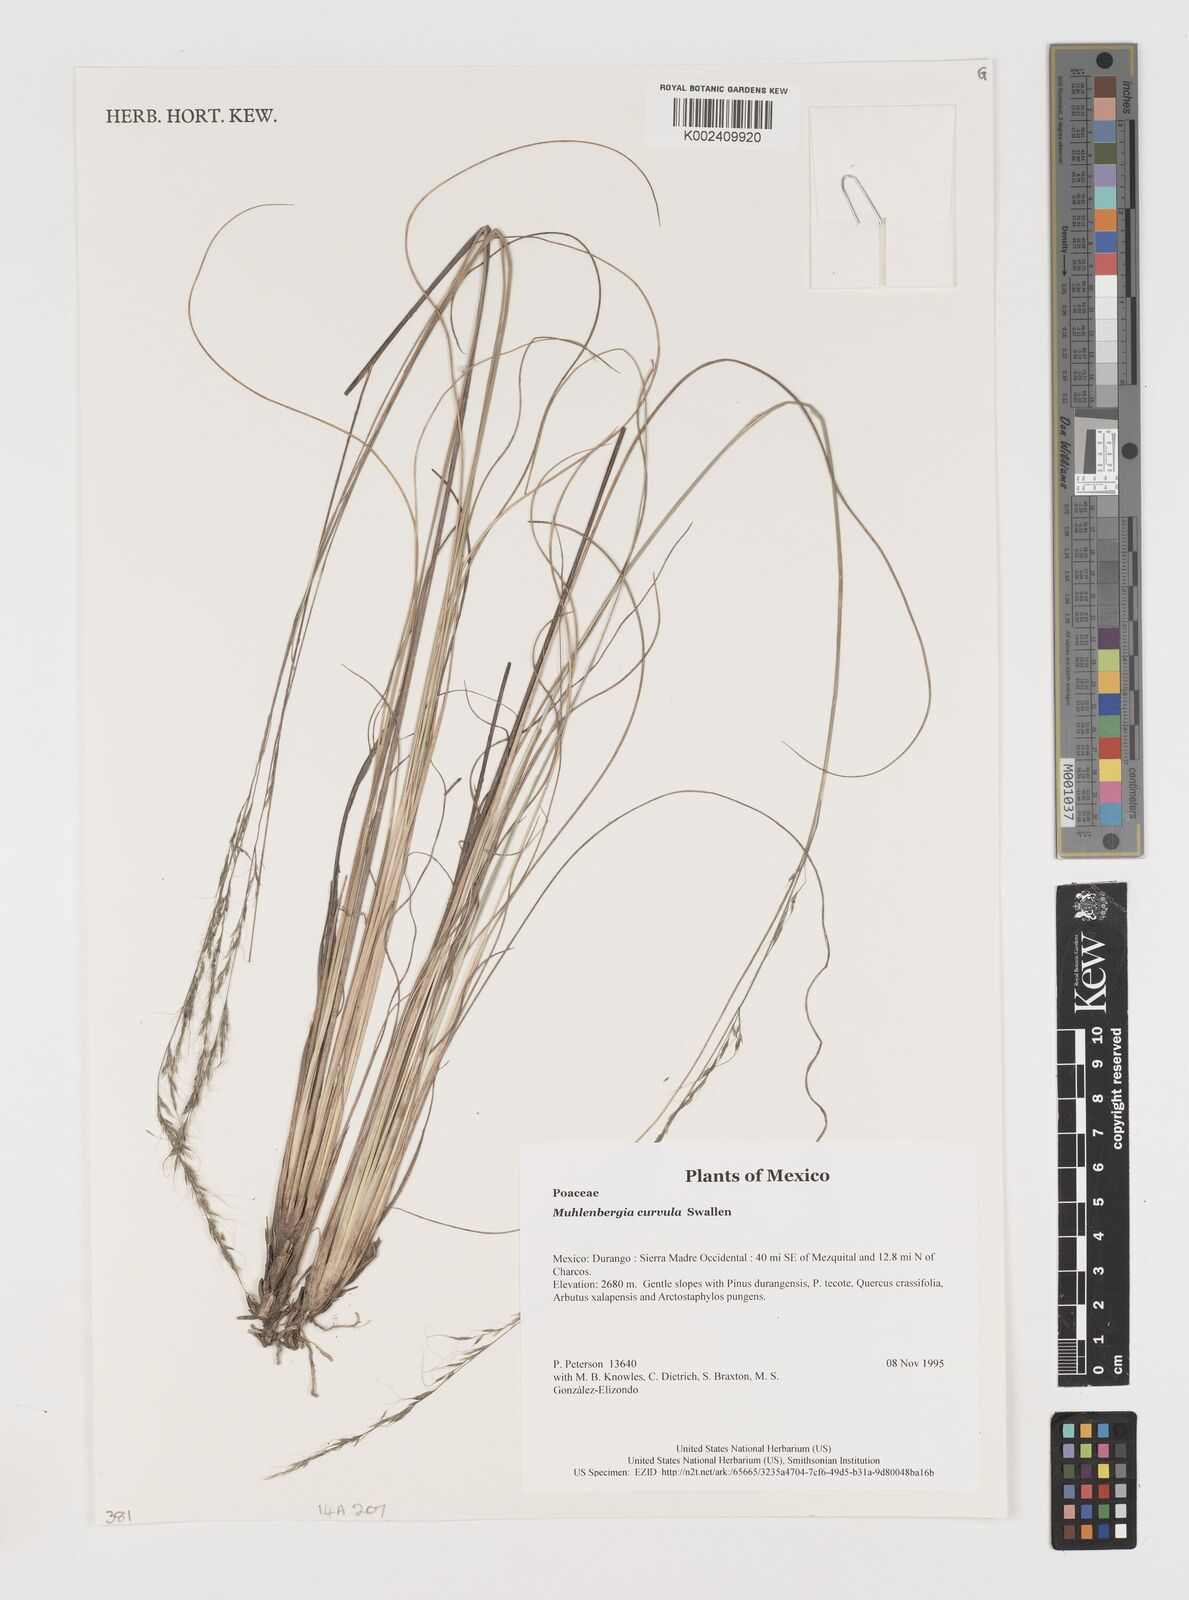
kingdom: Plantae
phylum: Tracheophyta
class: Liliopsida
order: Poales
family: Poaceae
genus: Muhlenbergia
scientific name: Muhlenbergia virescens
